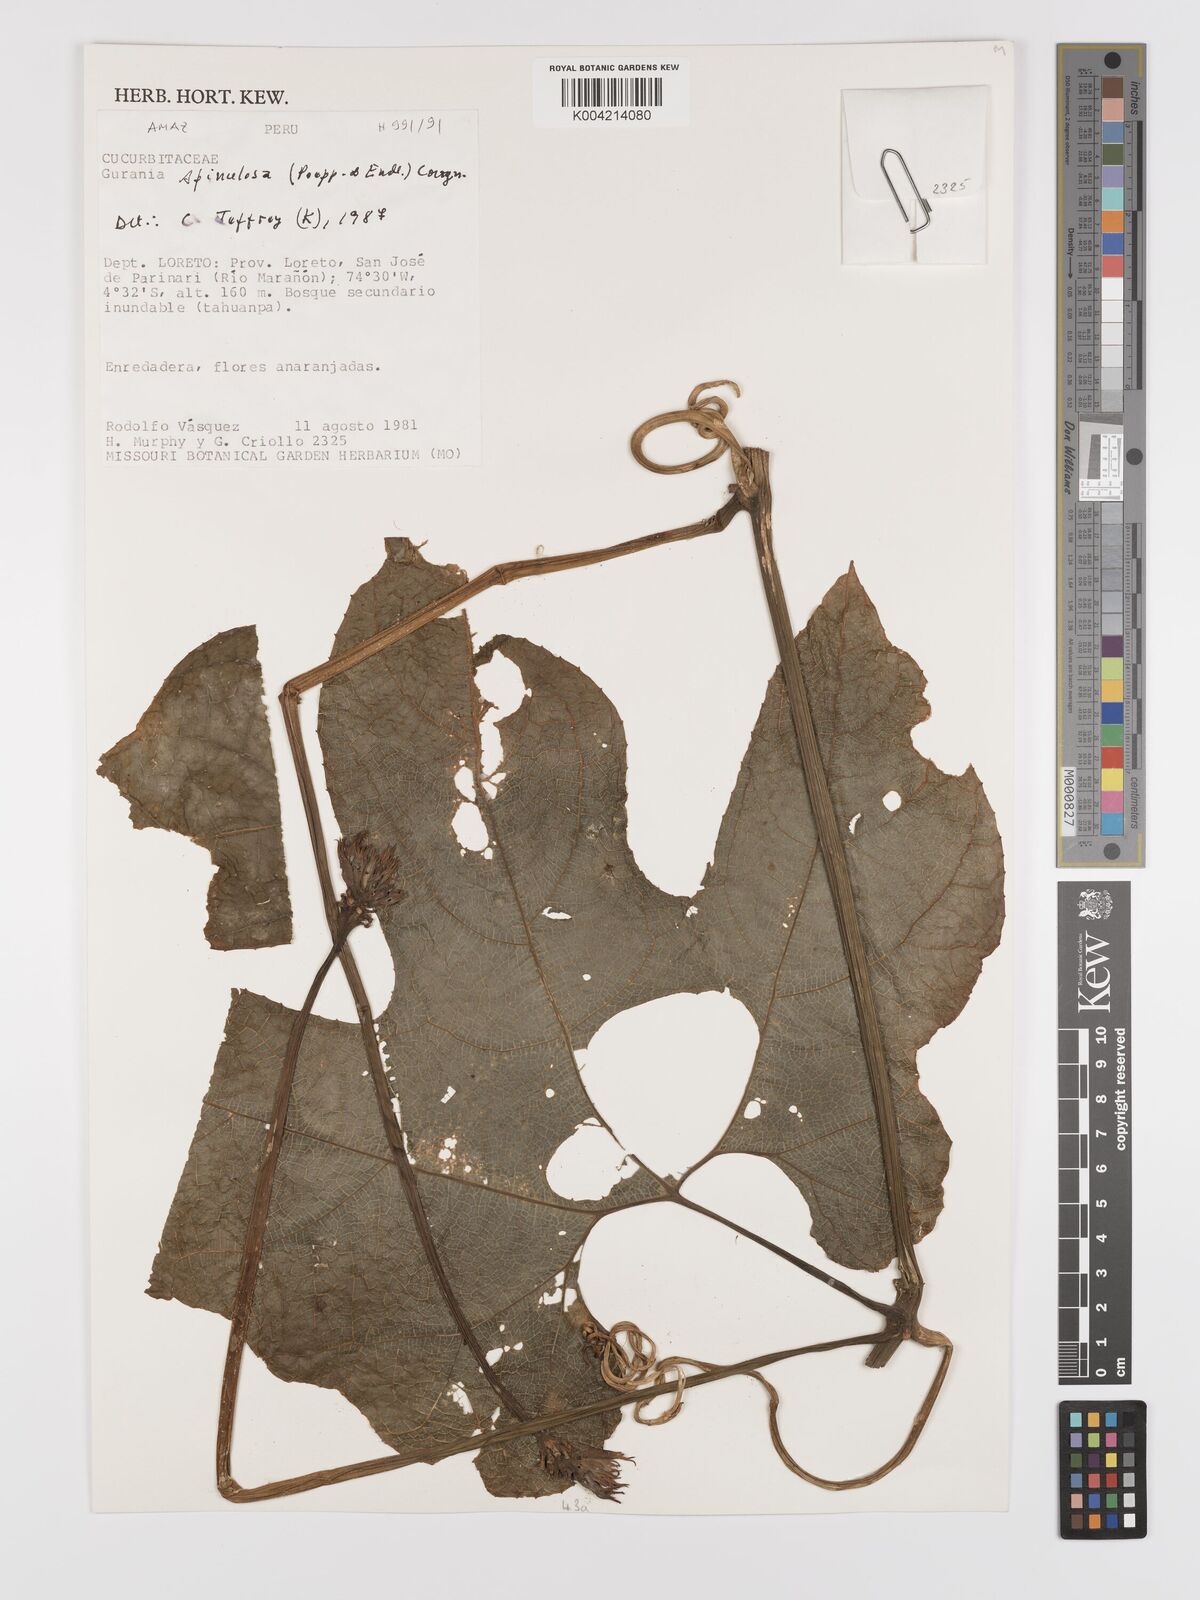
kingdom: Plantae
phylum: Tracheophyta
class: Magnoliopsida
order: Cucurbitales
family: Cucurbitaceae
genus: Gurania
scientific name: Gurania lobata
